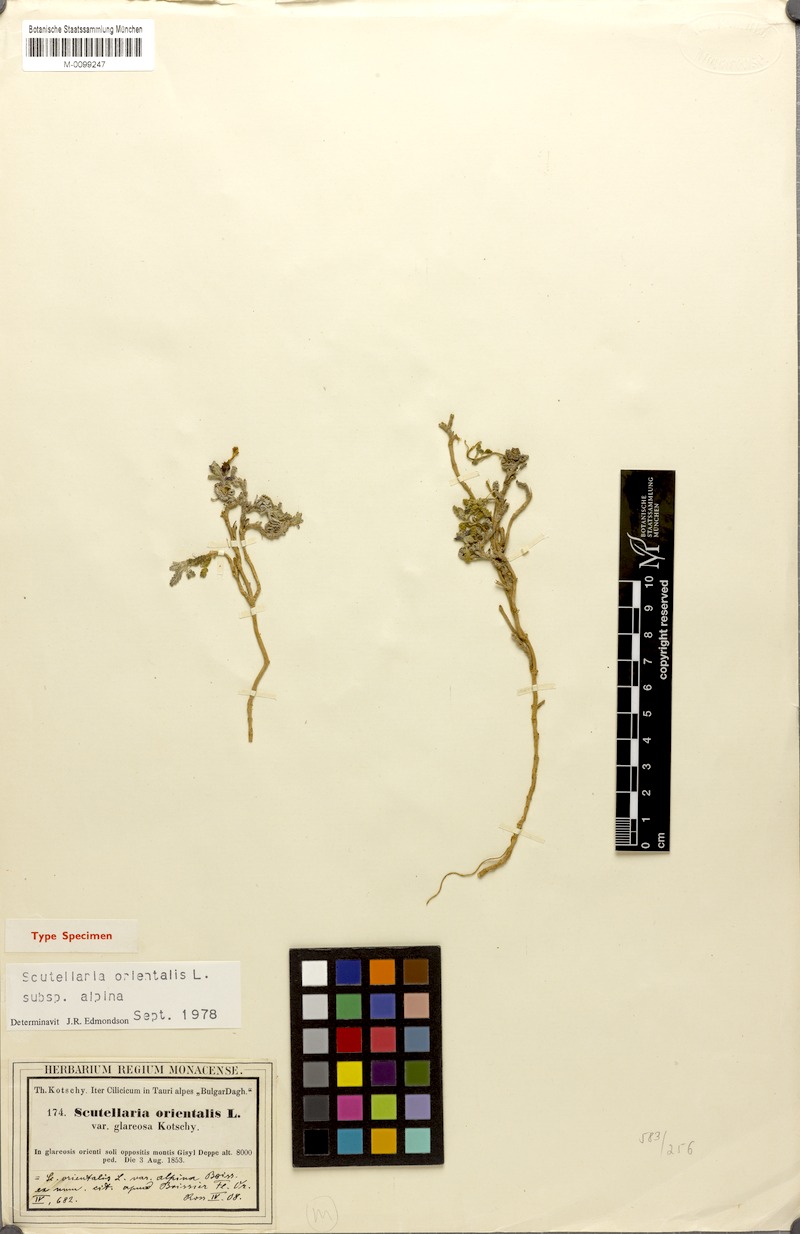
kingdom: Plantae
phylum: Tracheophyta
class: Magnoliopsida
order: Lamiales
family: Lamiaceae
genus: Scutellaria
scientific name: Scutellaria orientalis
